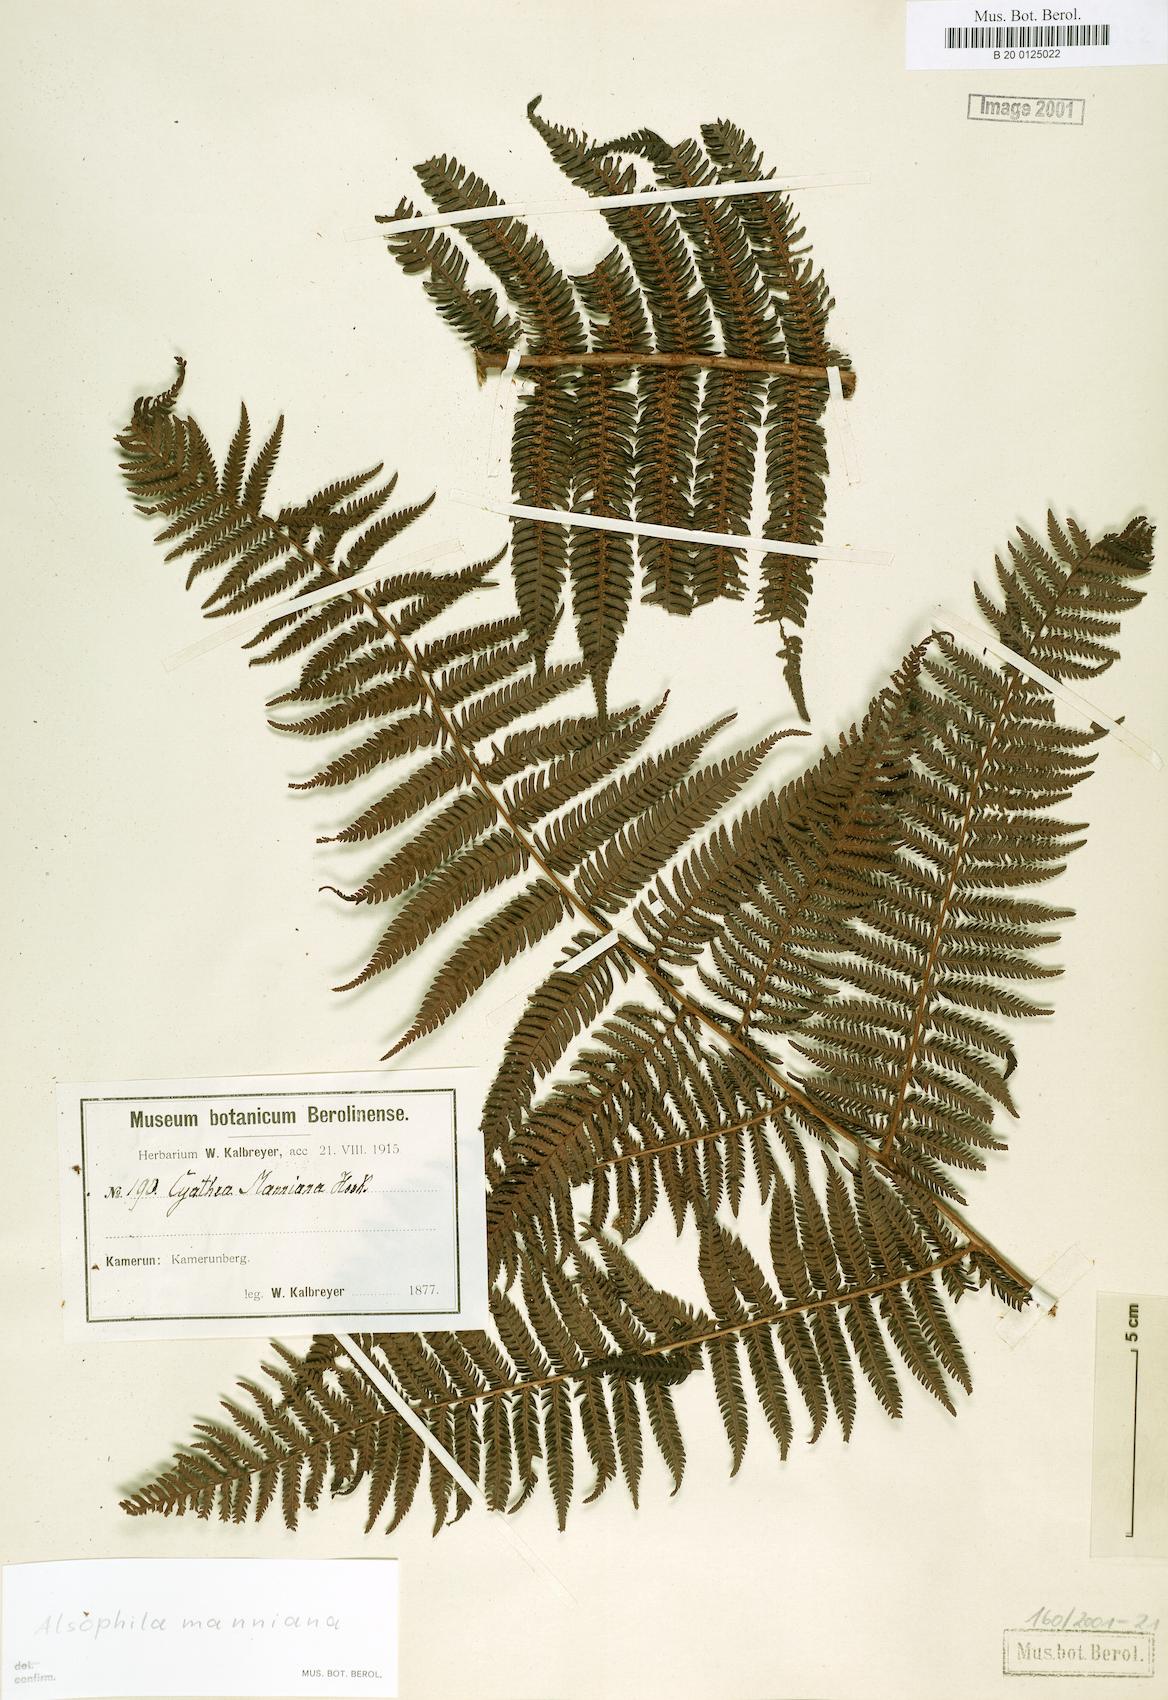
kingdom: Plantae
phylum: Tracheophyta
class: Polypodiopsida
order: Cyatheales
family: Cyatheaceae
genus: Alsophila
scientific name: Alsophila manniana
